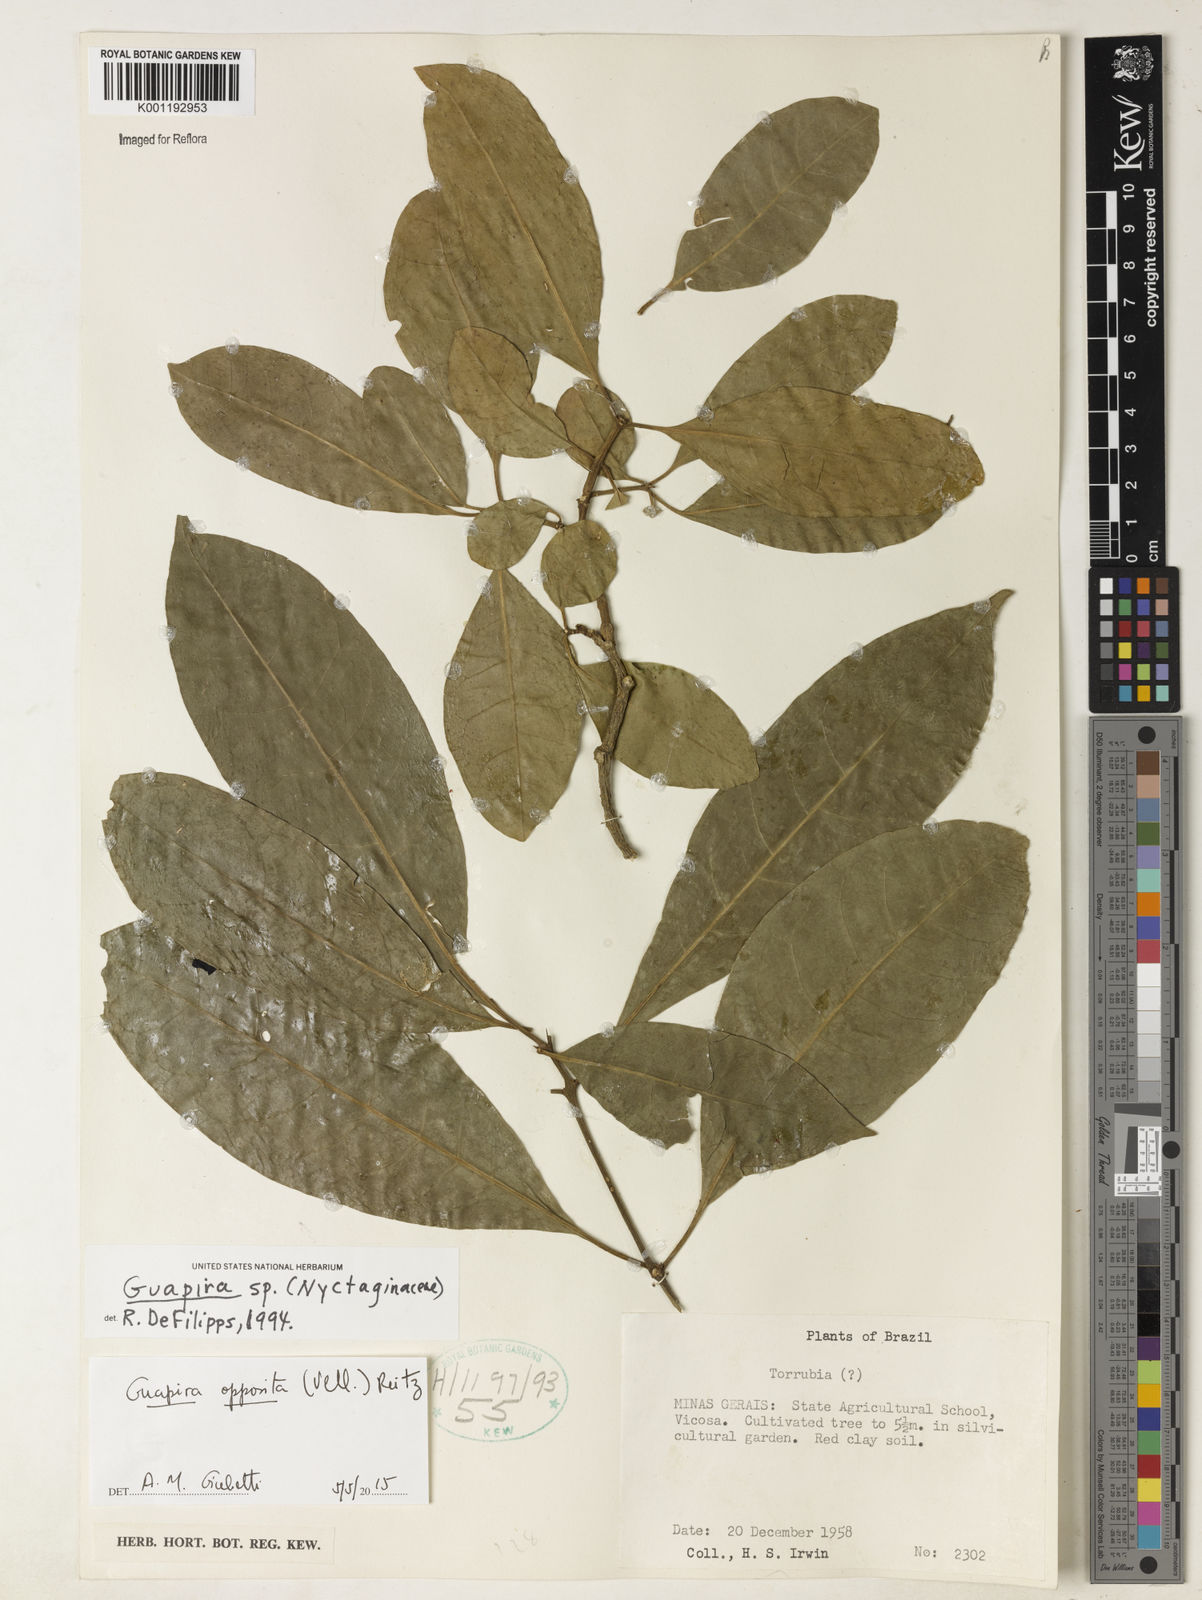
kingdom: Plantae
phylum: Tracheophyta
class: Magnoliopsida
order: Caryophyllales
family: Nyctaginaceae
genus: Guapira
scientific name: Guapira opposita
